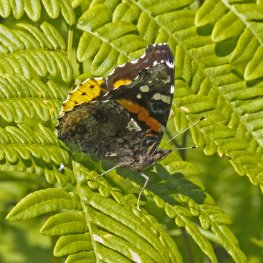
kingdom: Animalia
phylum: Arthropoda
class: Insecta
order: Lepidoptera
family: Nymphalidae
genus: Vanessa
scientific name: Vanessa atalanta
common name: Red Admiral
